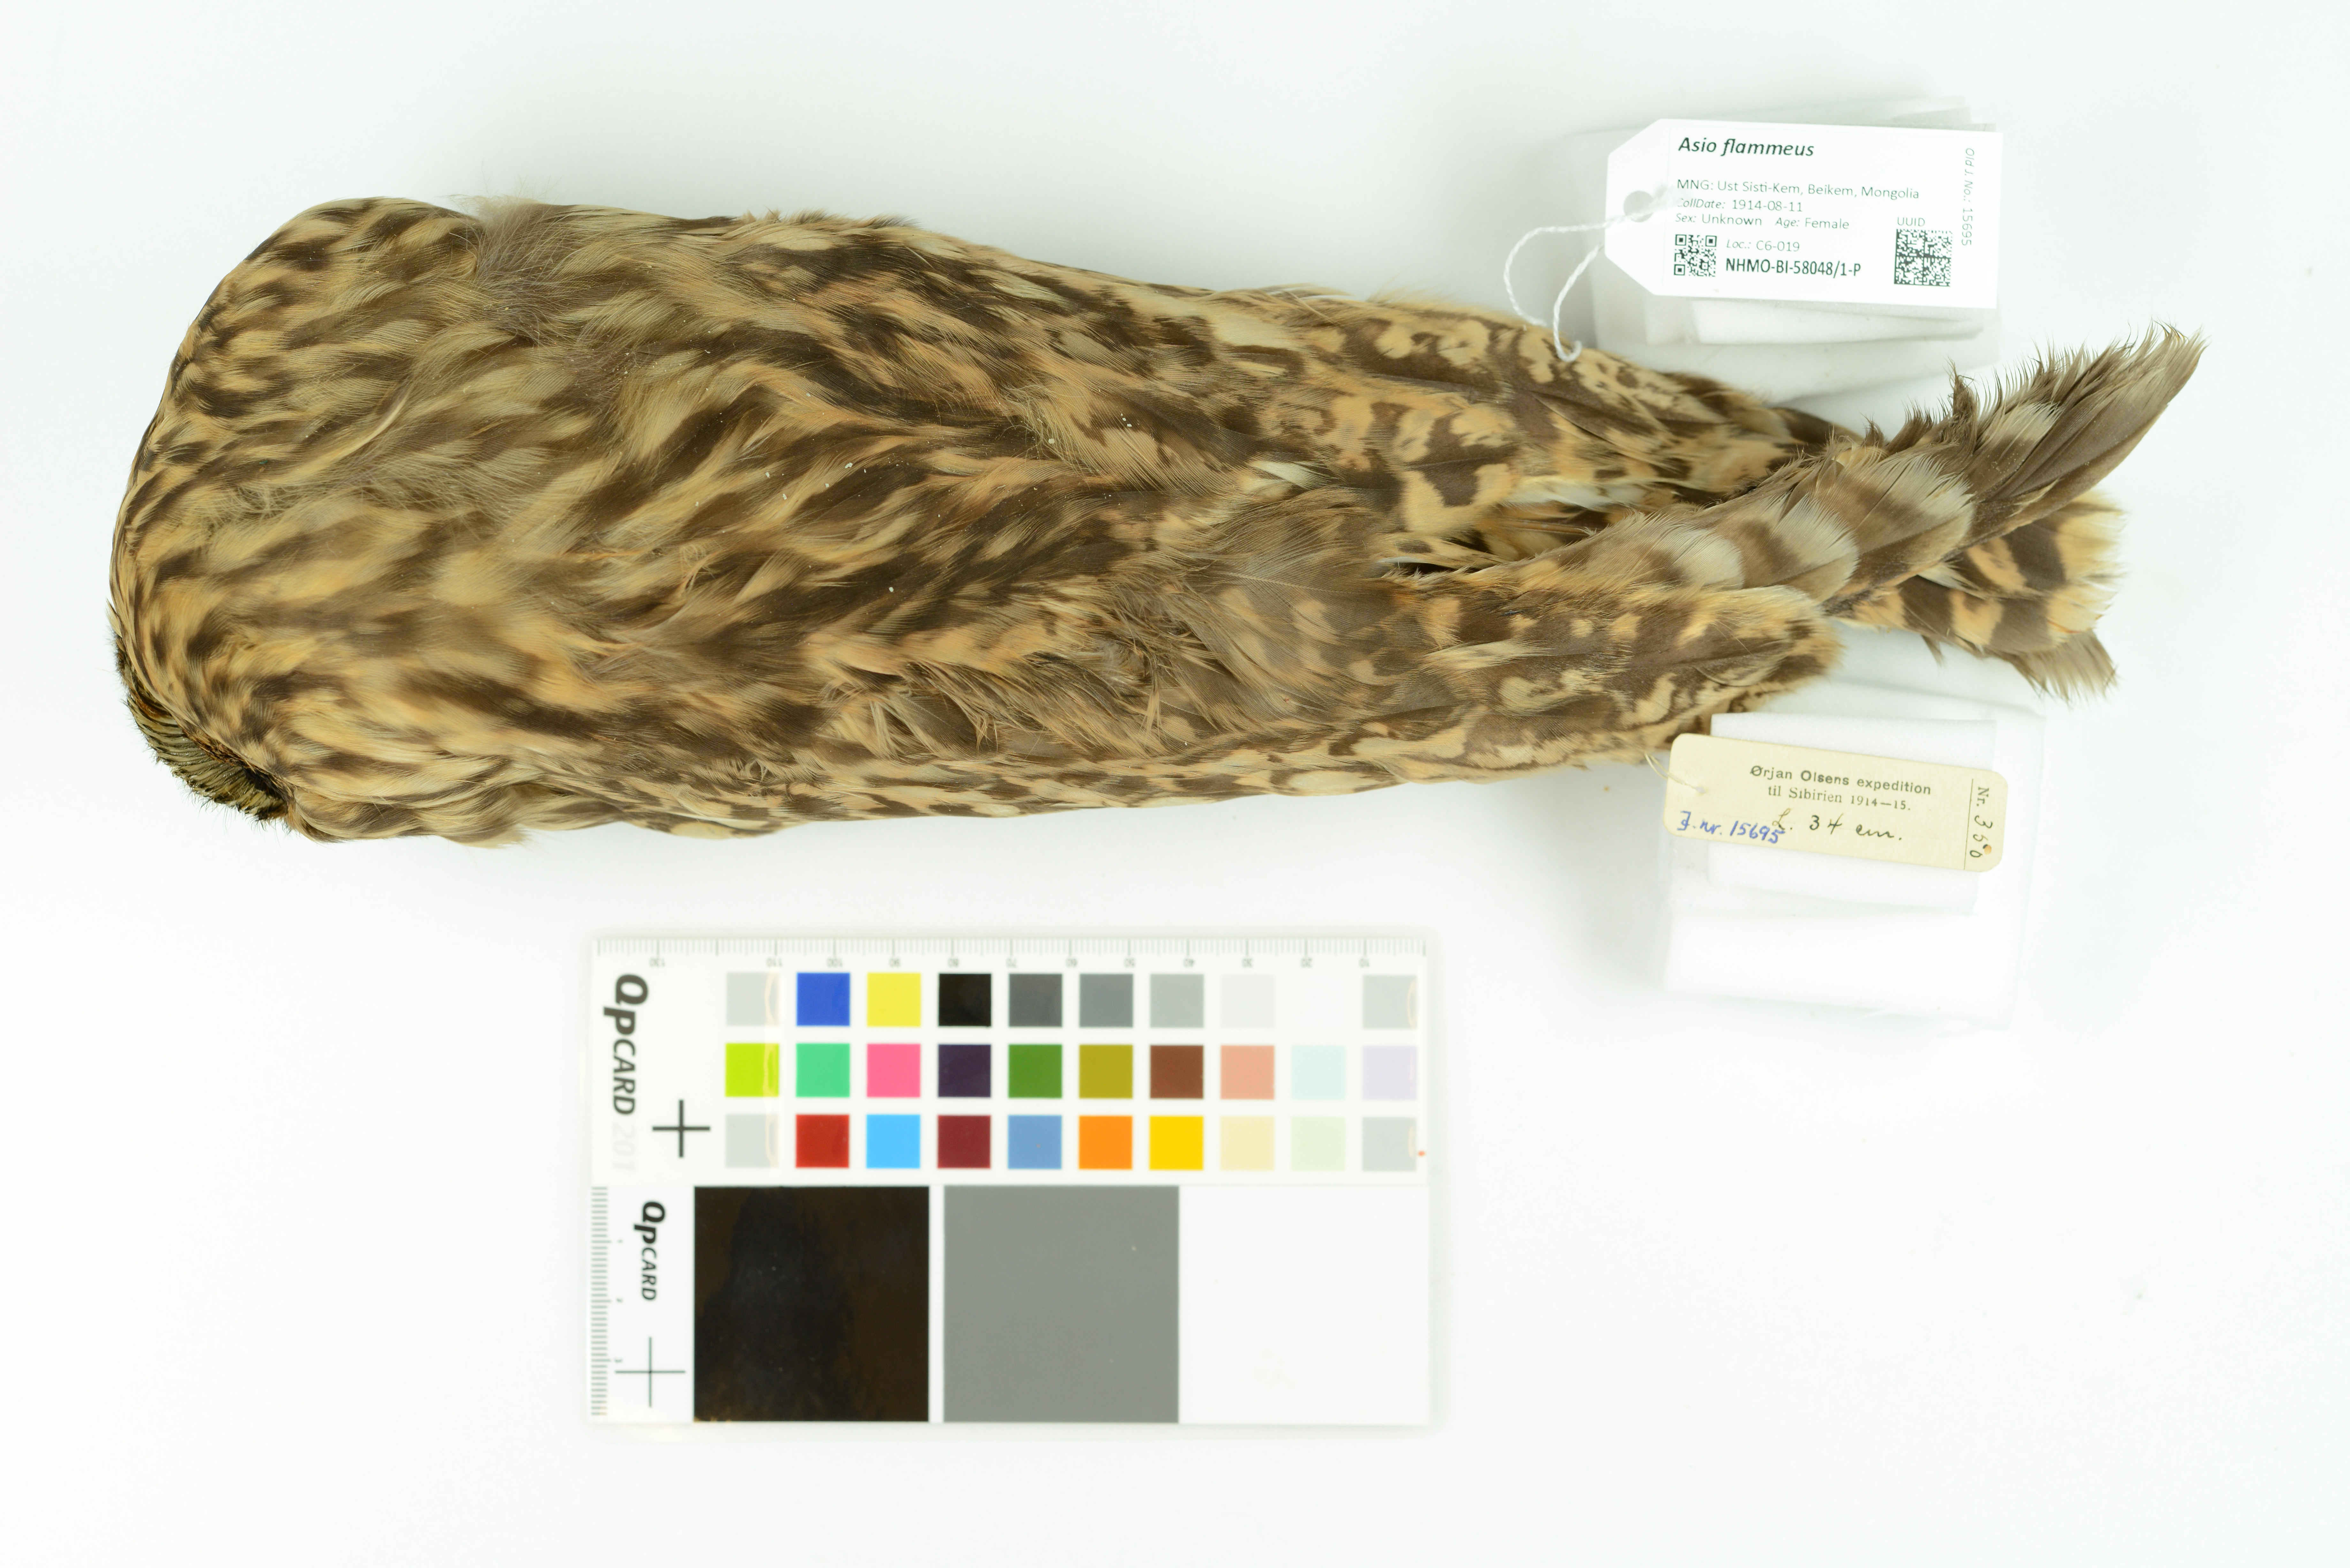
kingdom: Animalia
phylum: Chordata
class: Aves
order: Strigiformes
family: Strigidae
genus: Asio
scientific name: Asio flammeus
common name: Short-eared owl
